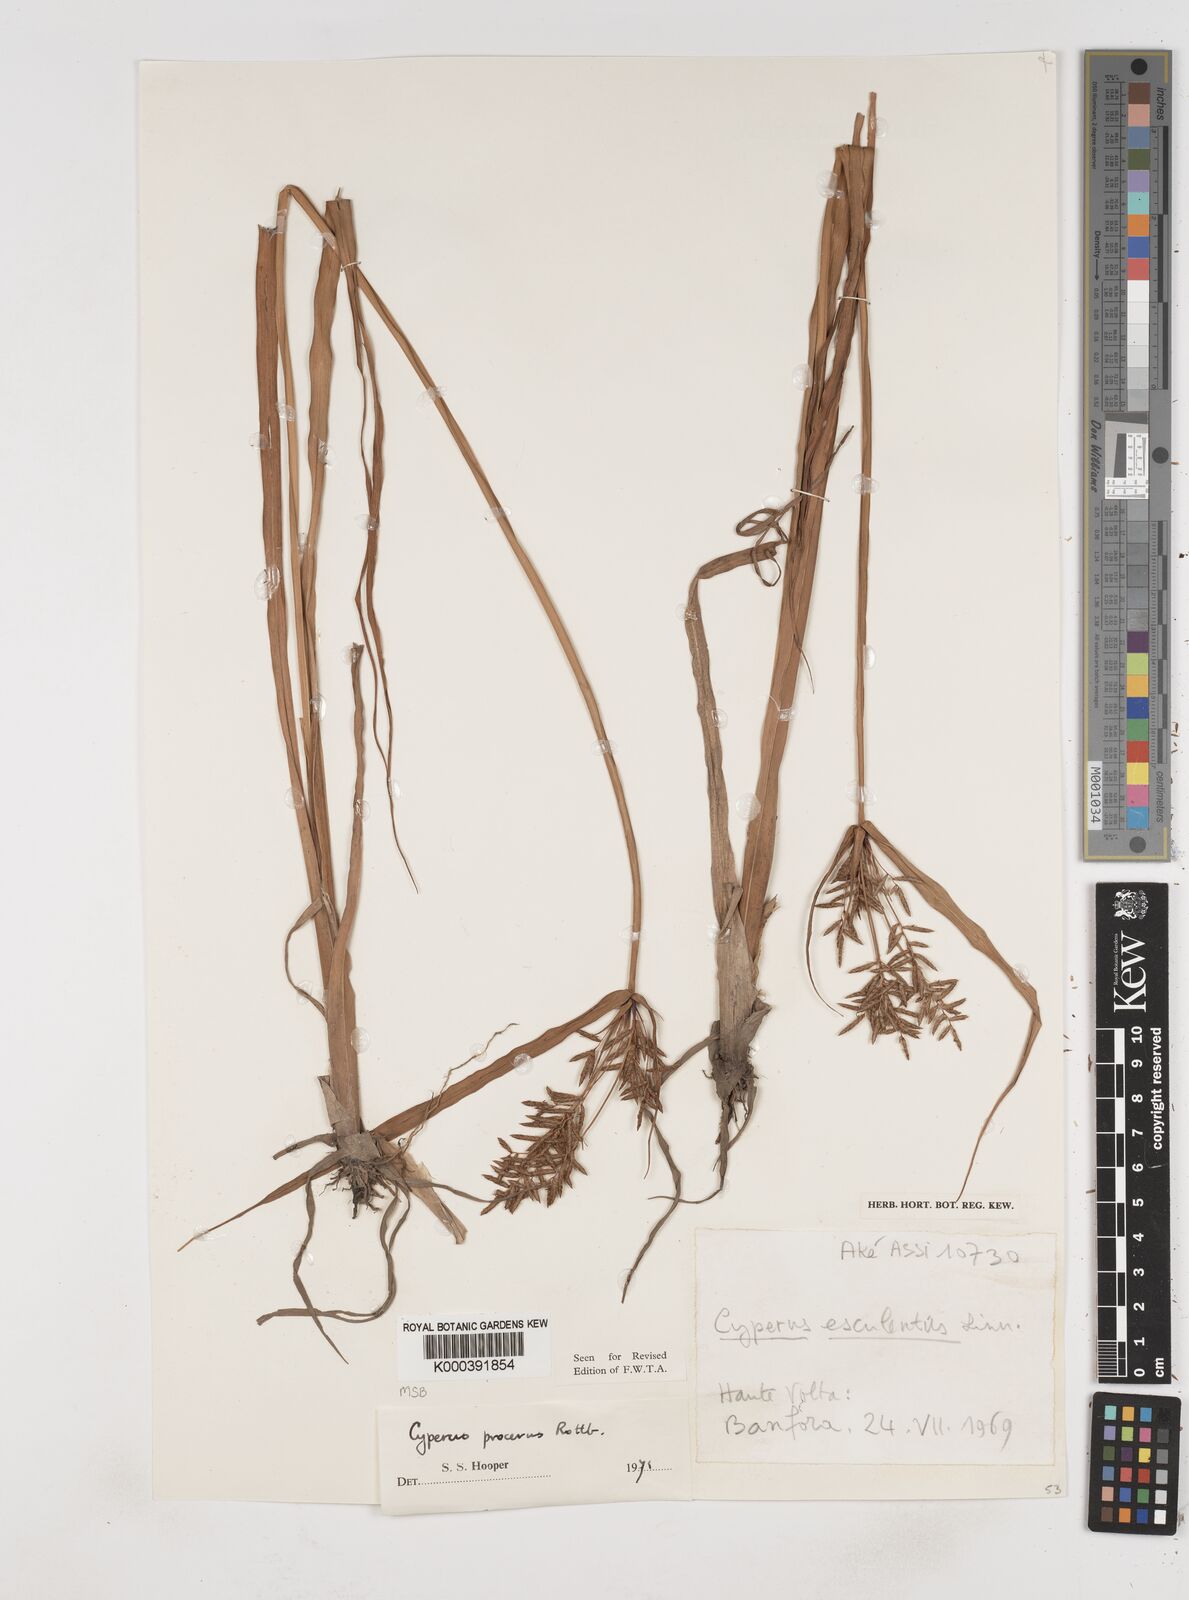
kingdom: Plantae
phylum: Tracheophyta
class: Liliopsida
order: Poales
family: Cyperaceae
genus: Cyperus
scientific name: Cyperus procerus
